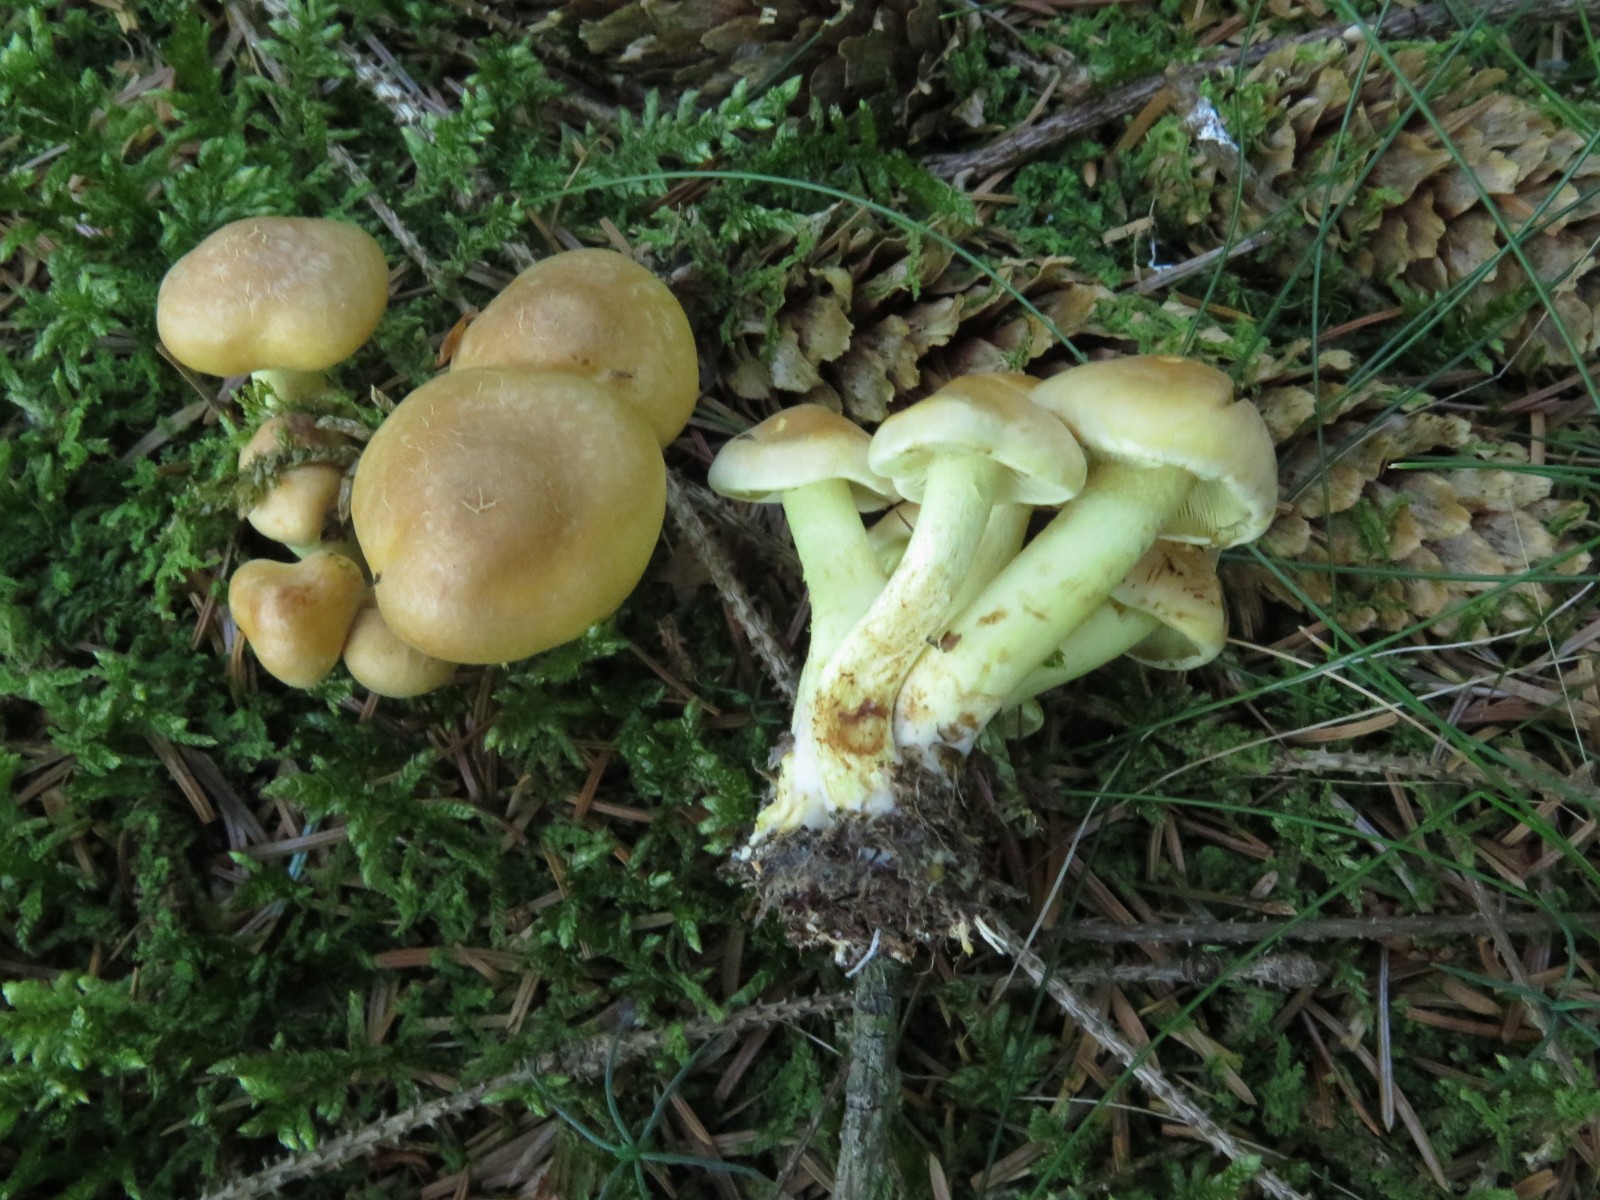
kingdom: Fungi
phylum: Basidiomycota
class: Agaricomycetes
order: Agaricales
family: Strophariaceae
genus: Hypholoma
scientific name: Hypholoma capnoides
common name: gran-svovlhat
